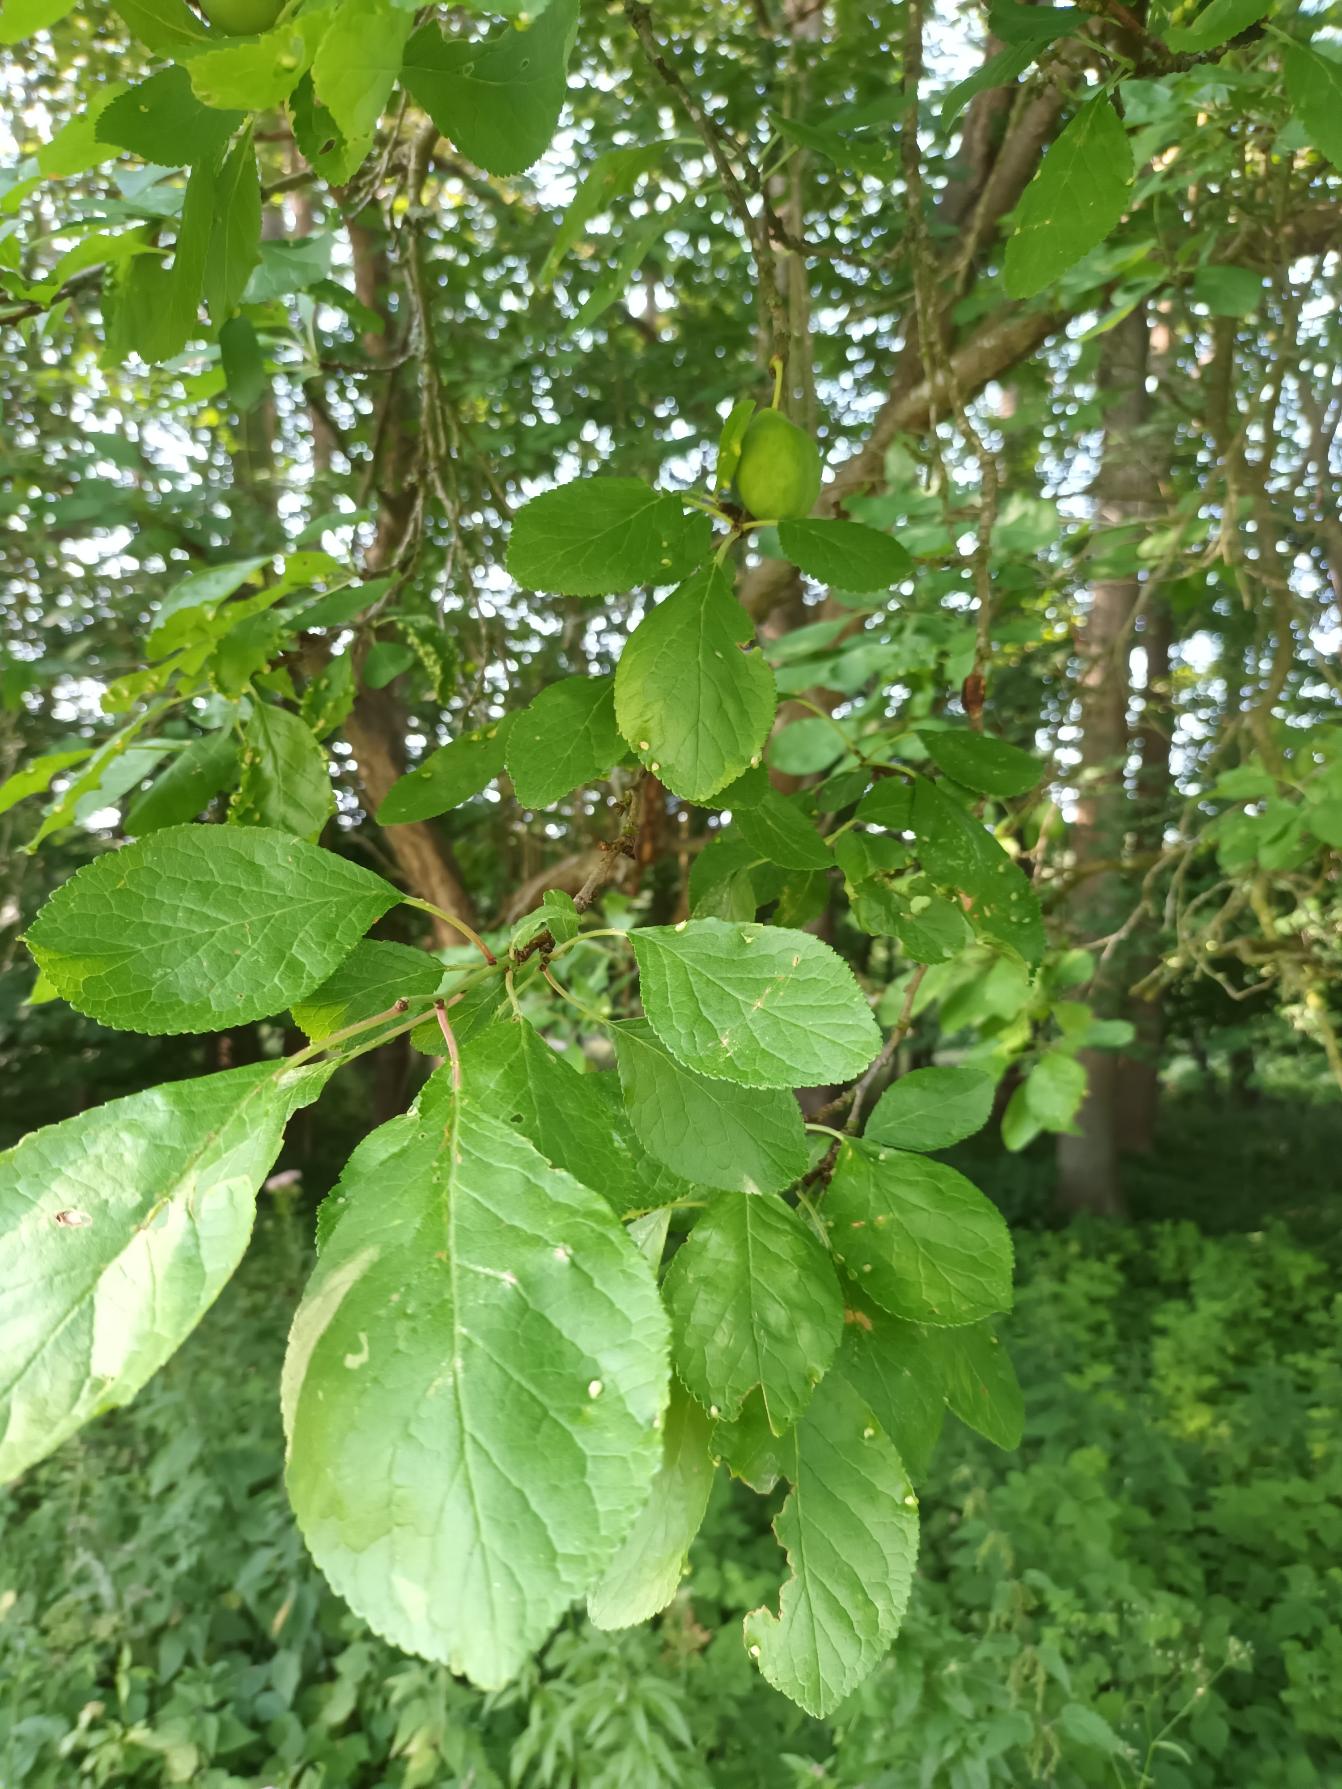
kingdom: Plantae
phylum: Tracheophyta
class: Magnoliopsida
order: Rosales
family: Rosaceae
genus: Prunus
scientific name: Prunus domestica
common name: Blomme
